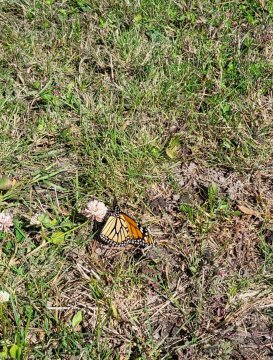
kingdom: Animalia
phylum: Arthropoda
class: Insecta
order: Lepidoptera
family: Nymphalidae
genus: Danaus
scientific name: Danaus plexippus
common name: Monarch
